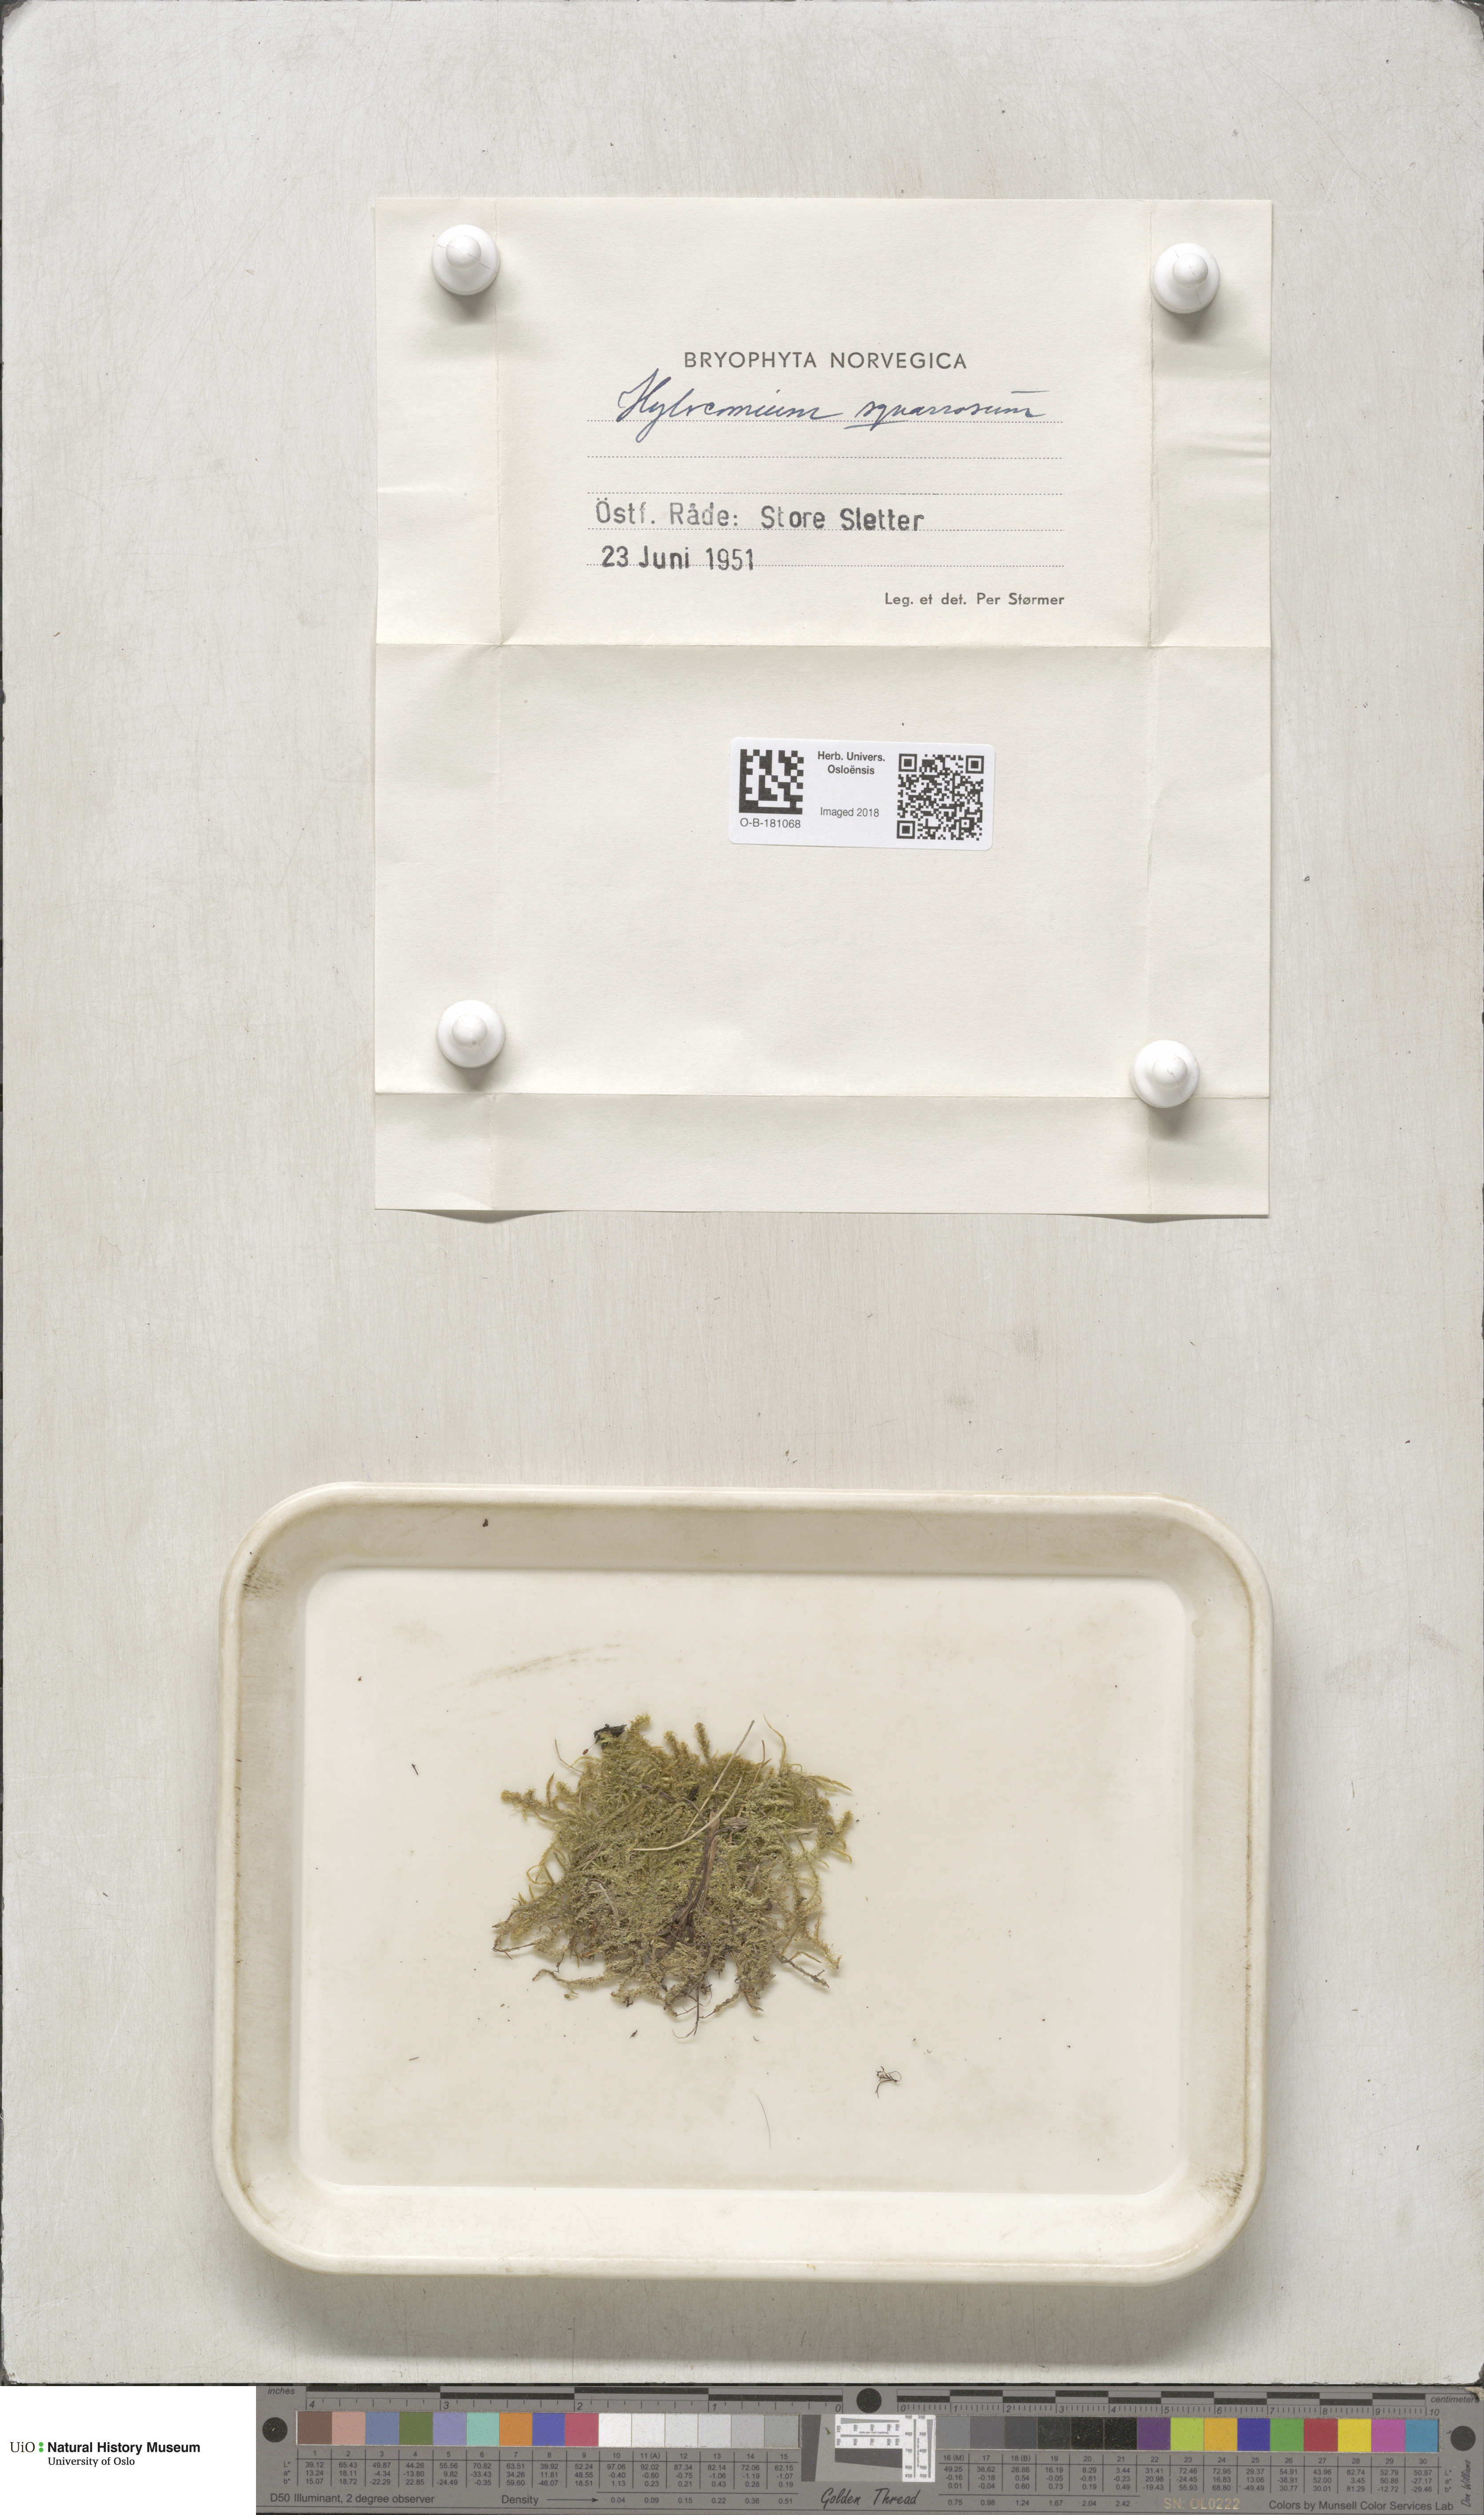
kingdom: Plantae
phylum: Bryophyta
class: Bryopsida
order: Hypnales
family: Hylocomiaceae
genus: Rhytidiadelphus
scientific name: Rhytidiadelphus squarrosus
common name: Springy turf-moss
